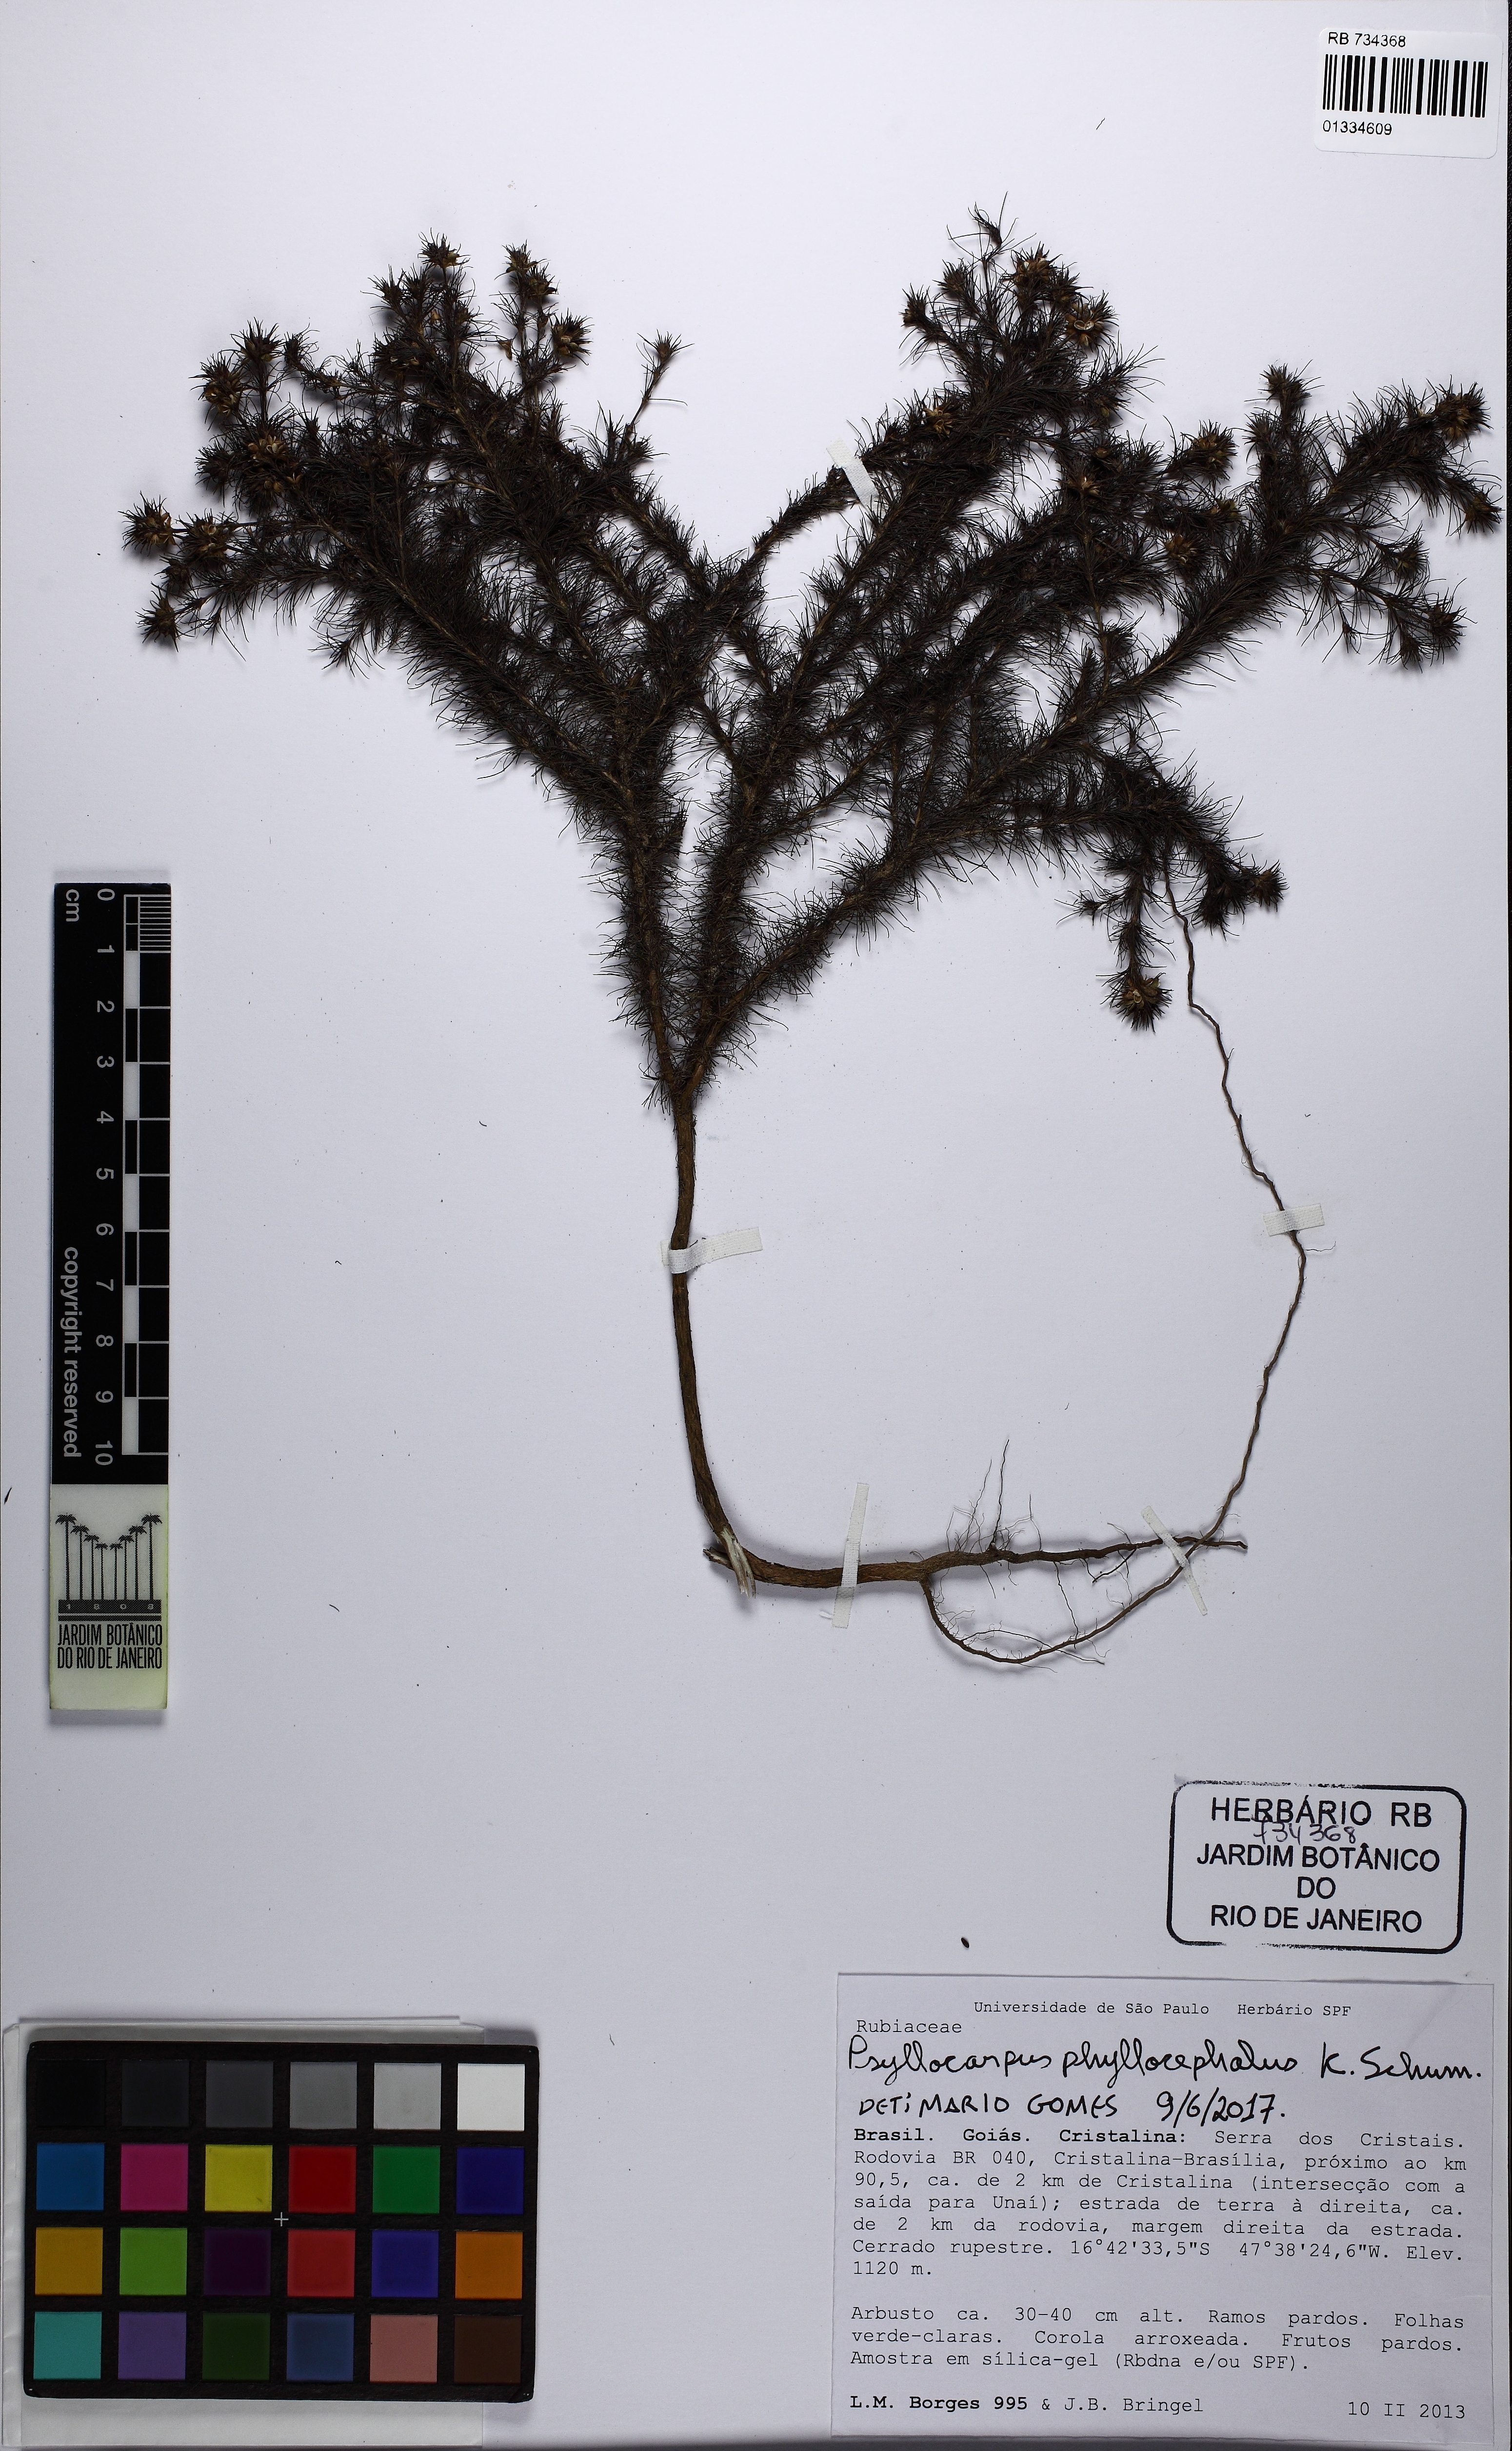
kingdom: Plantae
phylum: Tracheophyta
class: Magnoliopsida
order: Gentianales
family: Rubiaceae
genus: Psyllocarpus
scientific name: Psyllocarpus phyllocephalus
